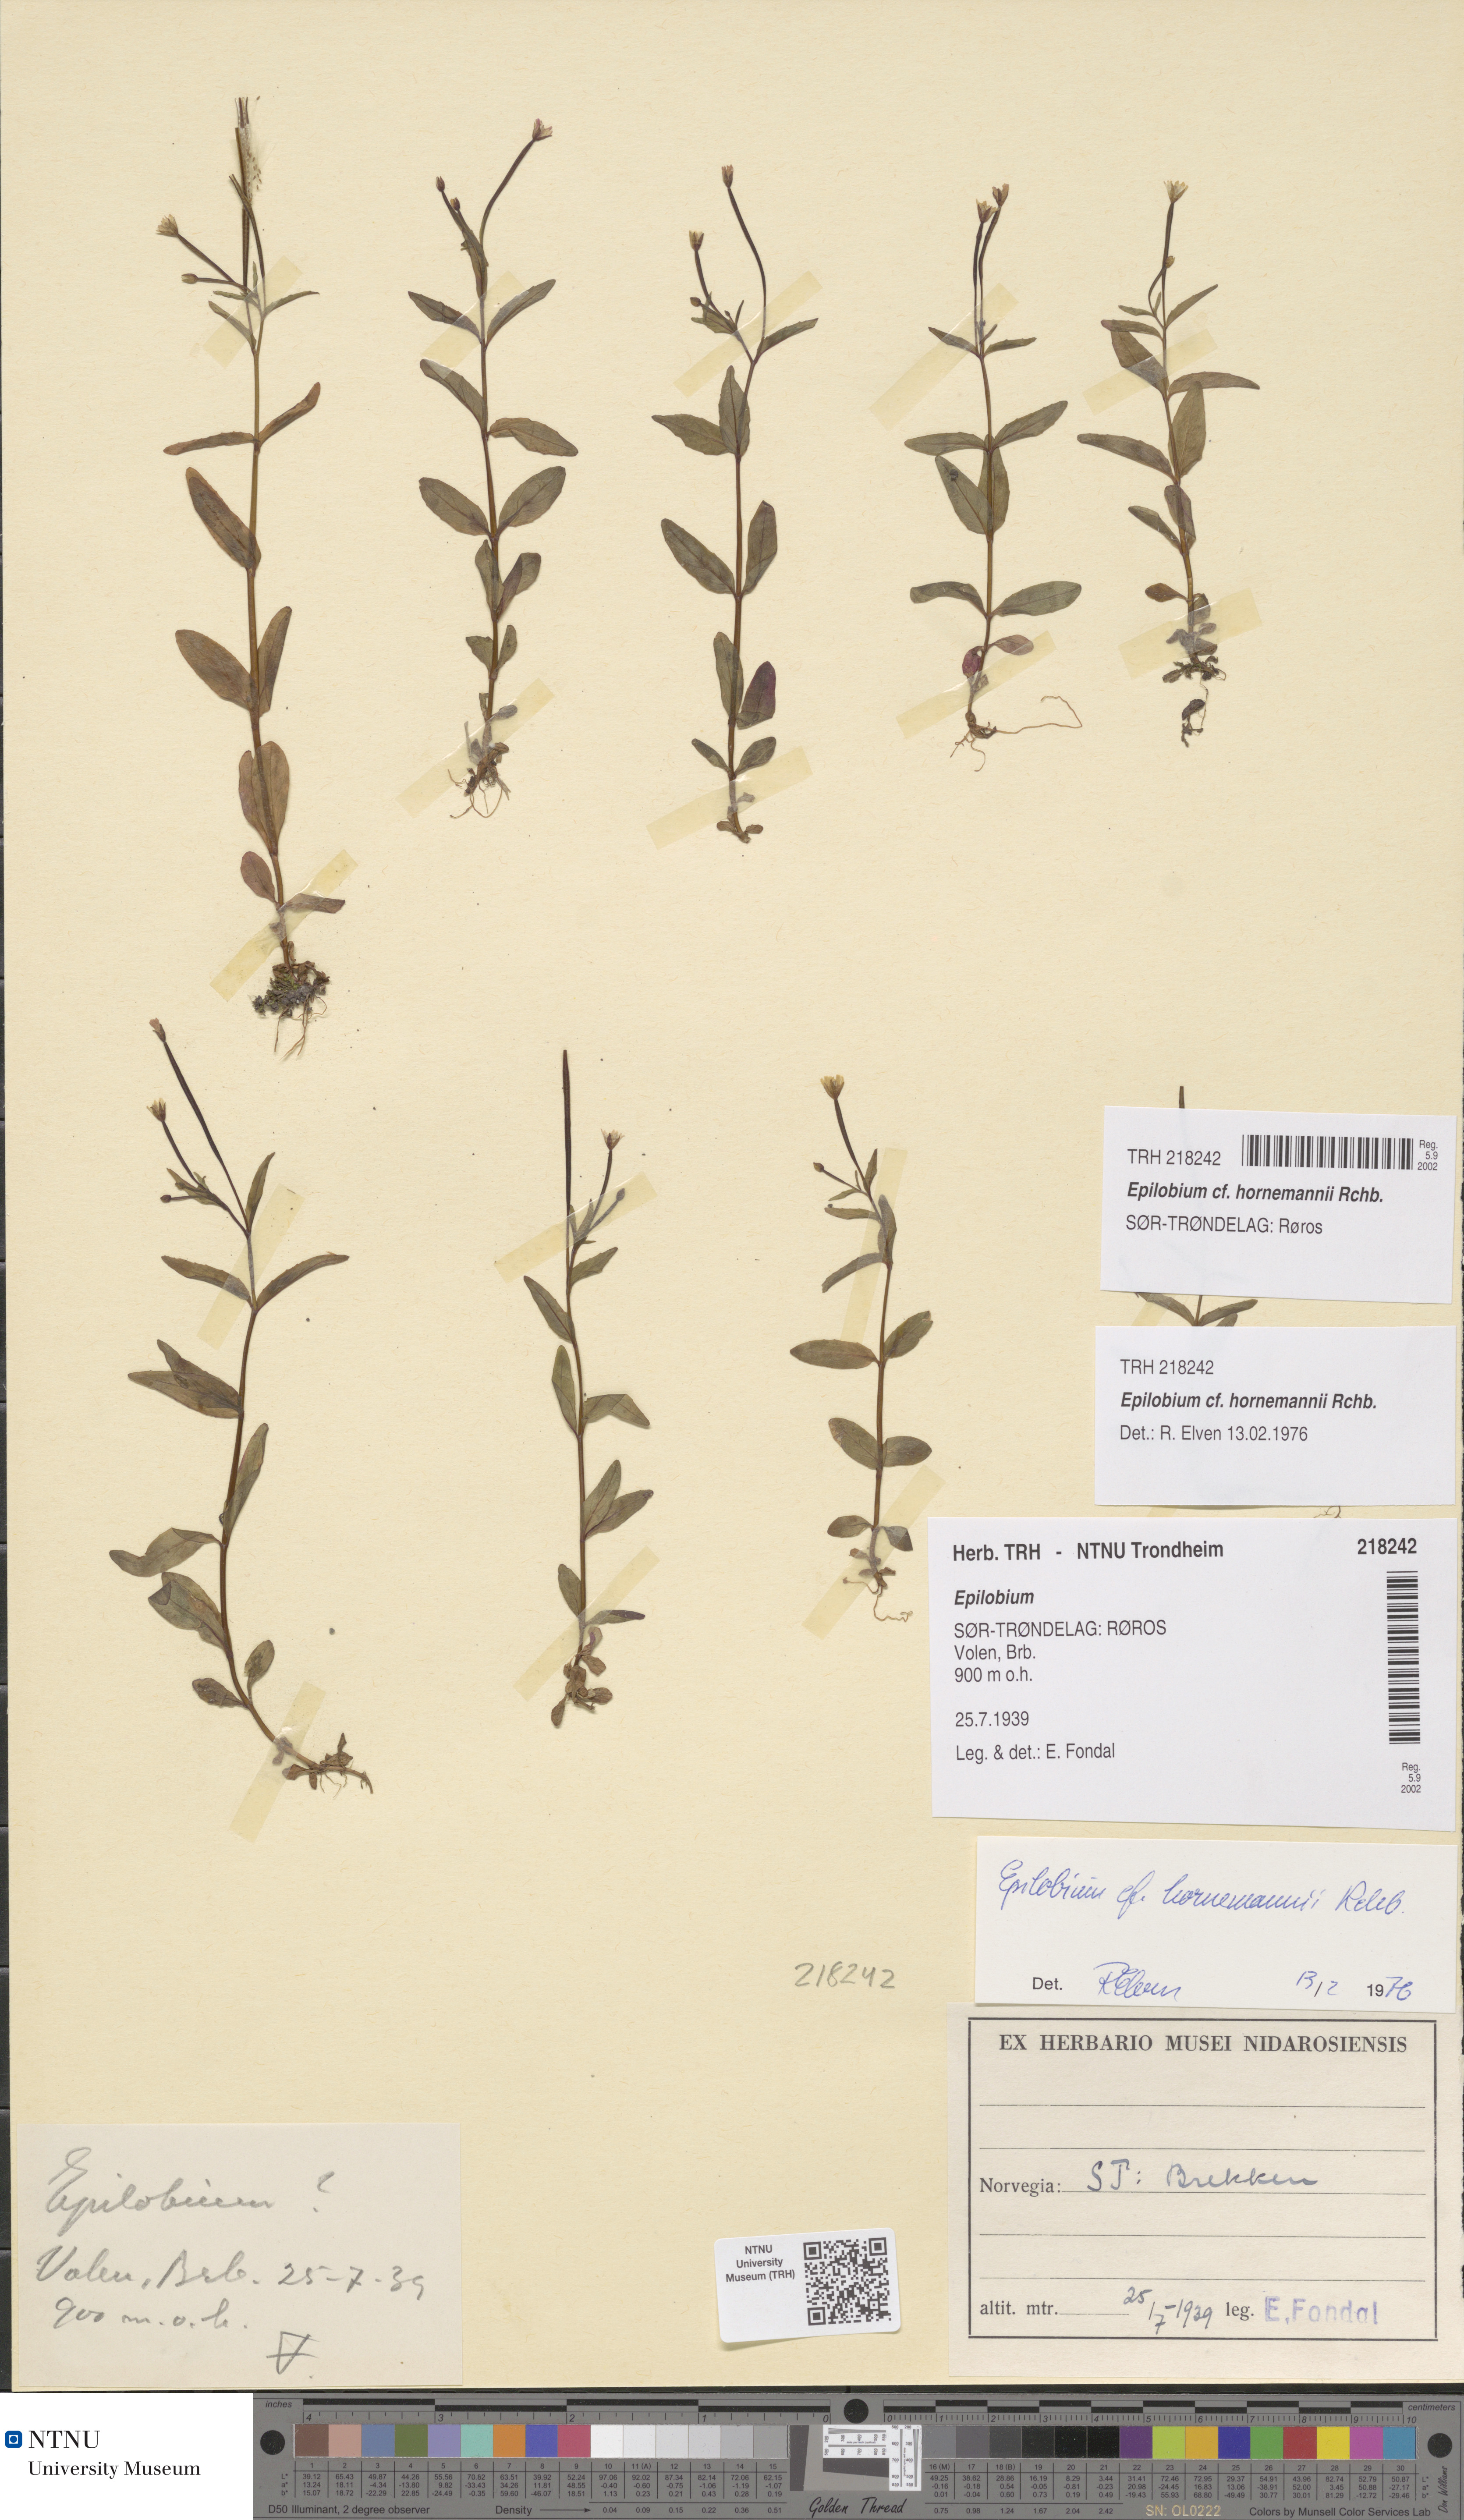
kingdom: Plantae
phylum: Tracheophyta
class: Magnoliopsida
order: Myrtales
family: Onagraceae
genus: Epilobium
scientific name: Epilobium hornemannii
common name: Hornemann's willowherb
